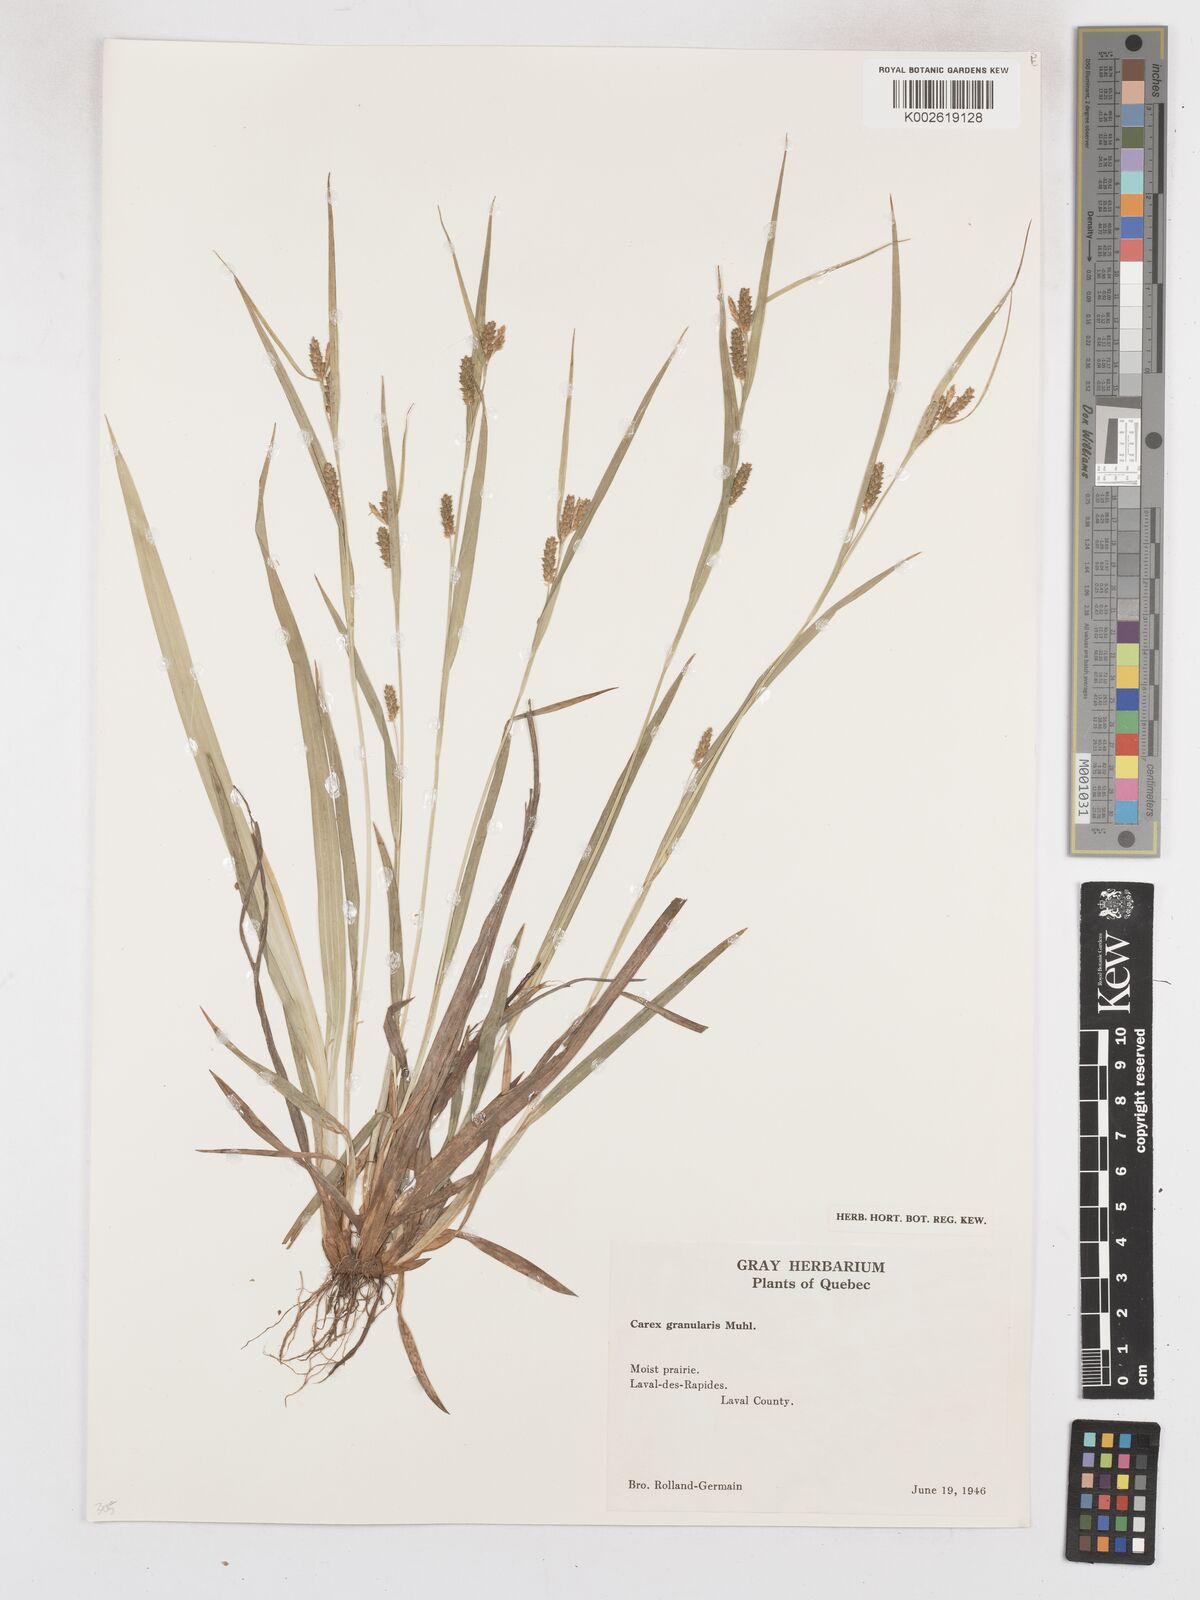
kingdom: Plantae
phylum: Tracheophyta
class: Liliopsida
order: Poales
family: Cyperaceae
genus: Carex
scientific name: Carex granularis
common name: Granular sedge
